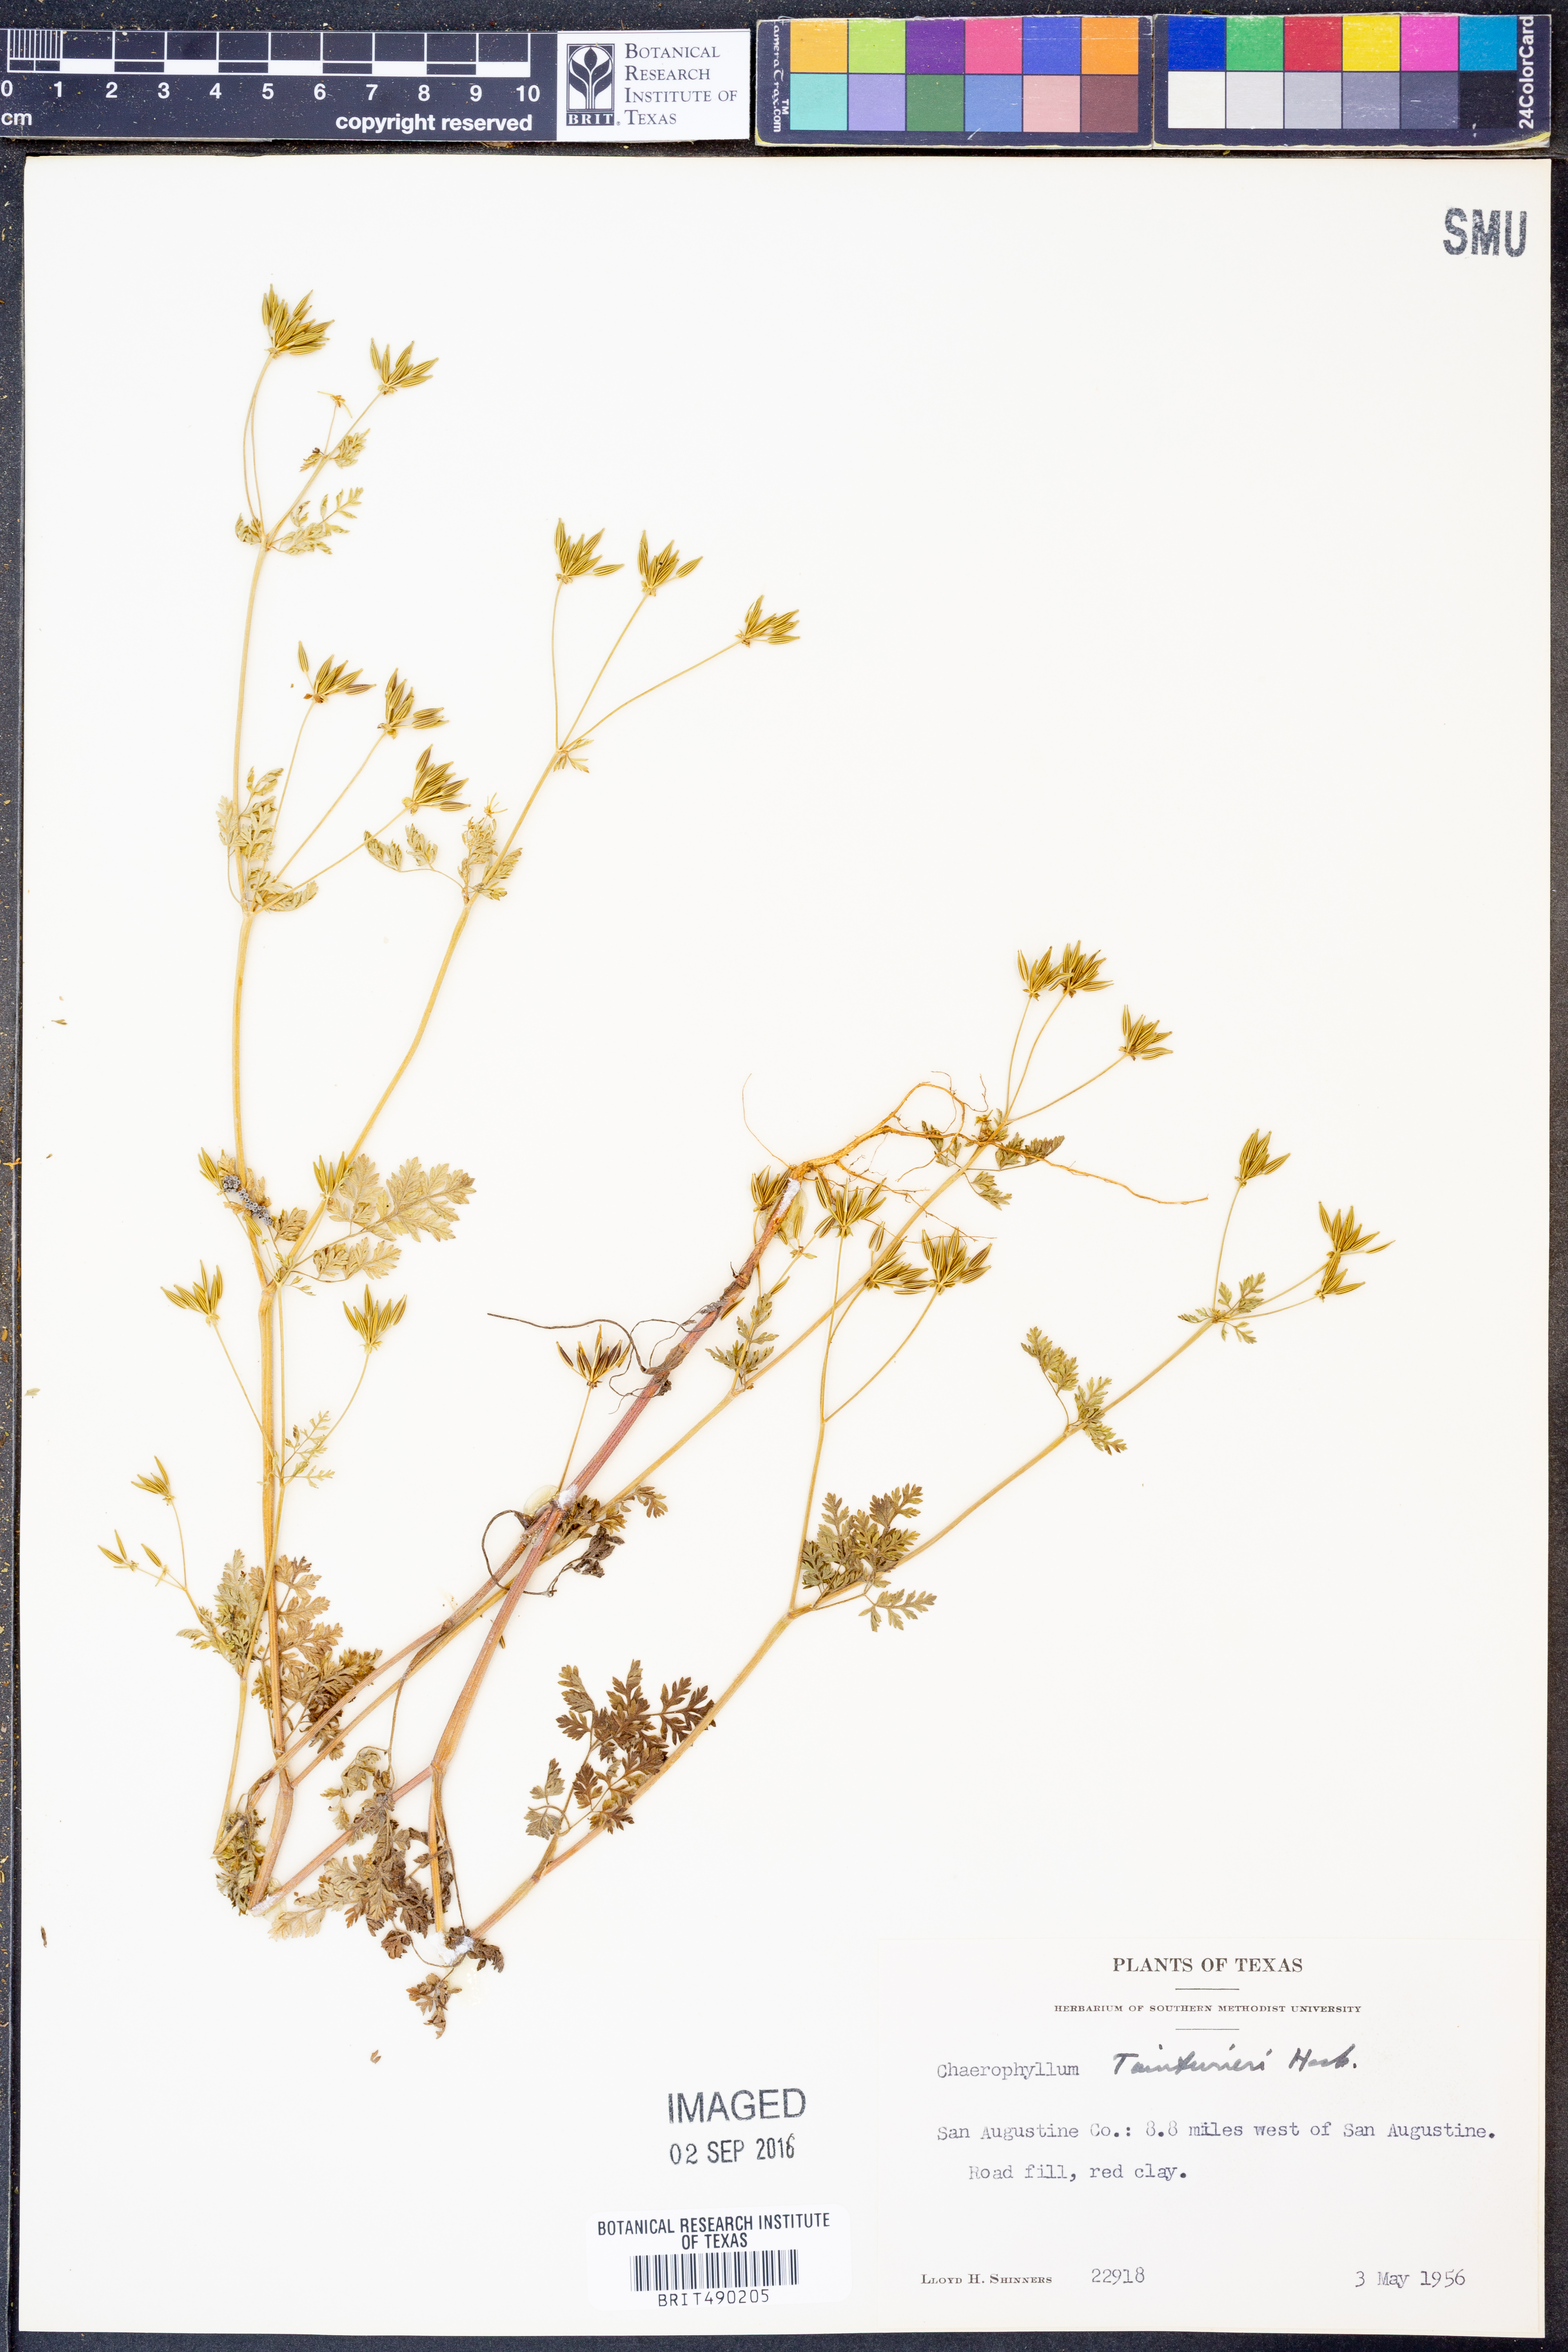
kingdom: Plantae
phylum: Tracheophyta
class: Magnoliopsida
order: Apiales
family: Apiaceae
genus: Chaerophyllum
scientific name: Chaerophyllum tainturieri
